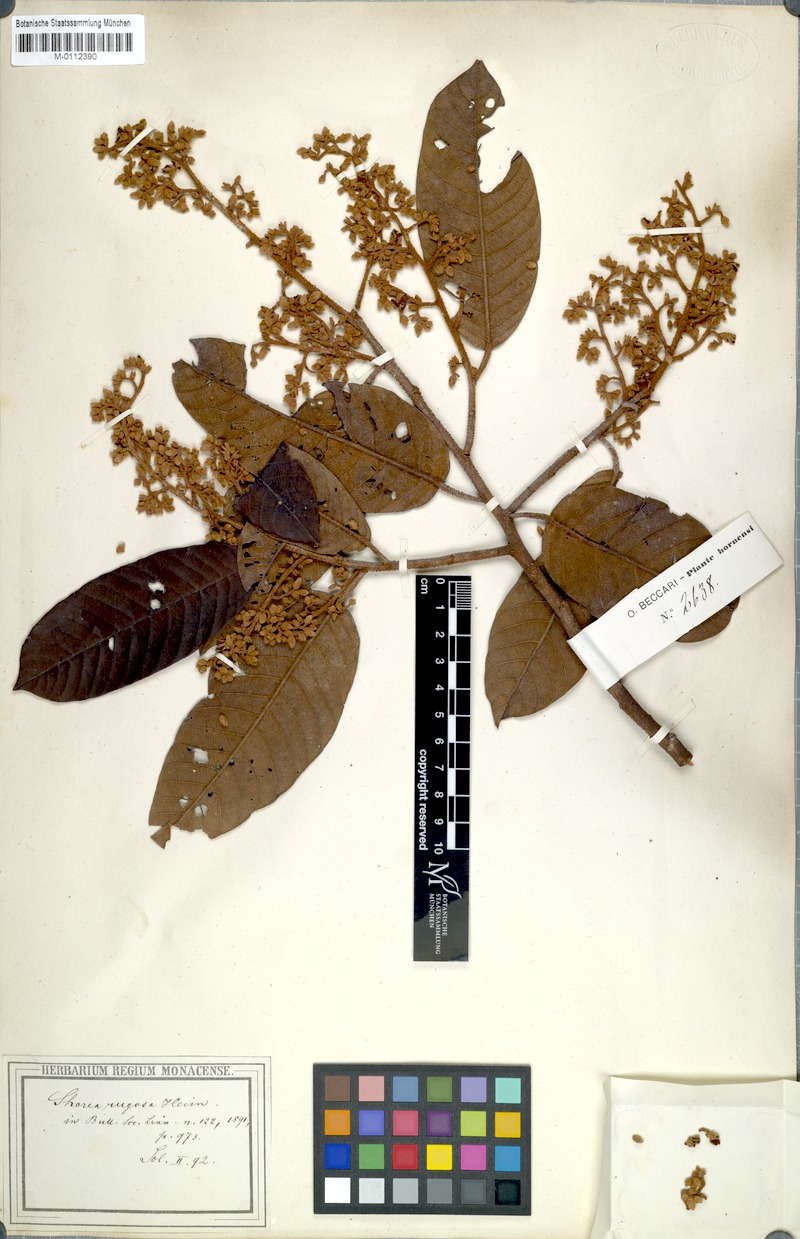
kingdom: Plantae
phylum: Tracheophyta
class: Magnoliopsida
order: Malvales
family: Dipterocarpaceae
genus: Shorea
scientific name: Shorea rugosa
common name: Dark red meranti
